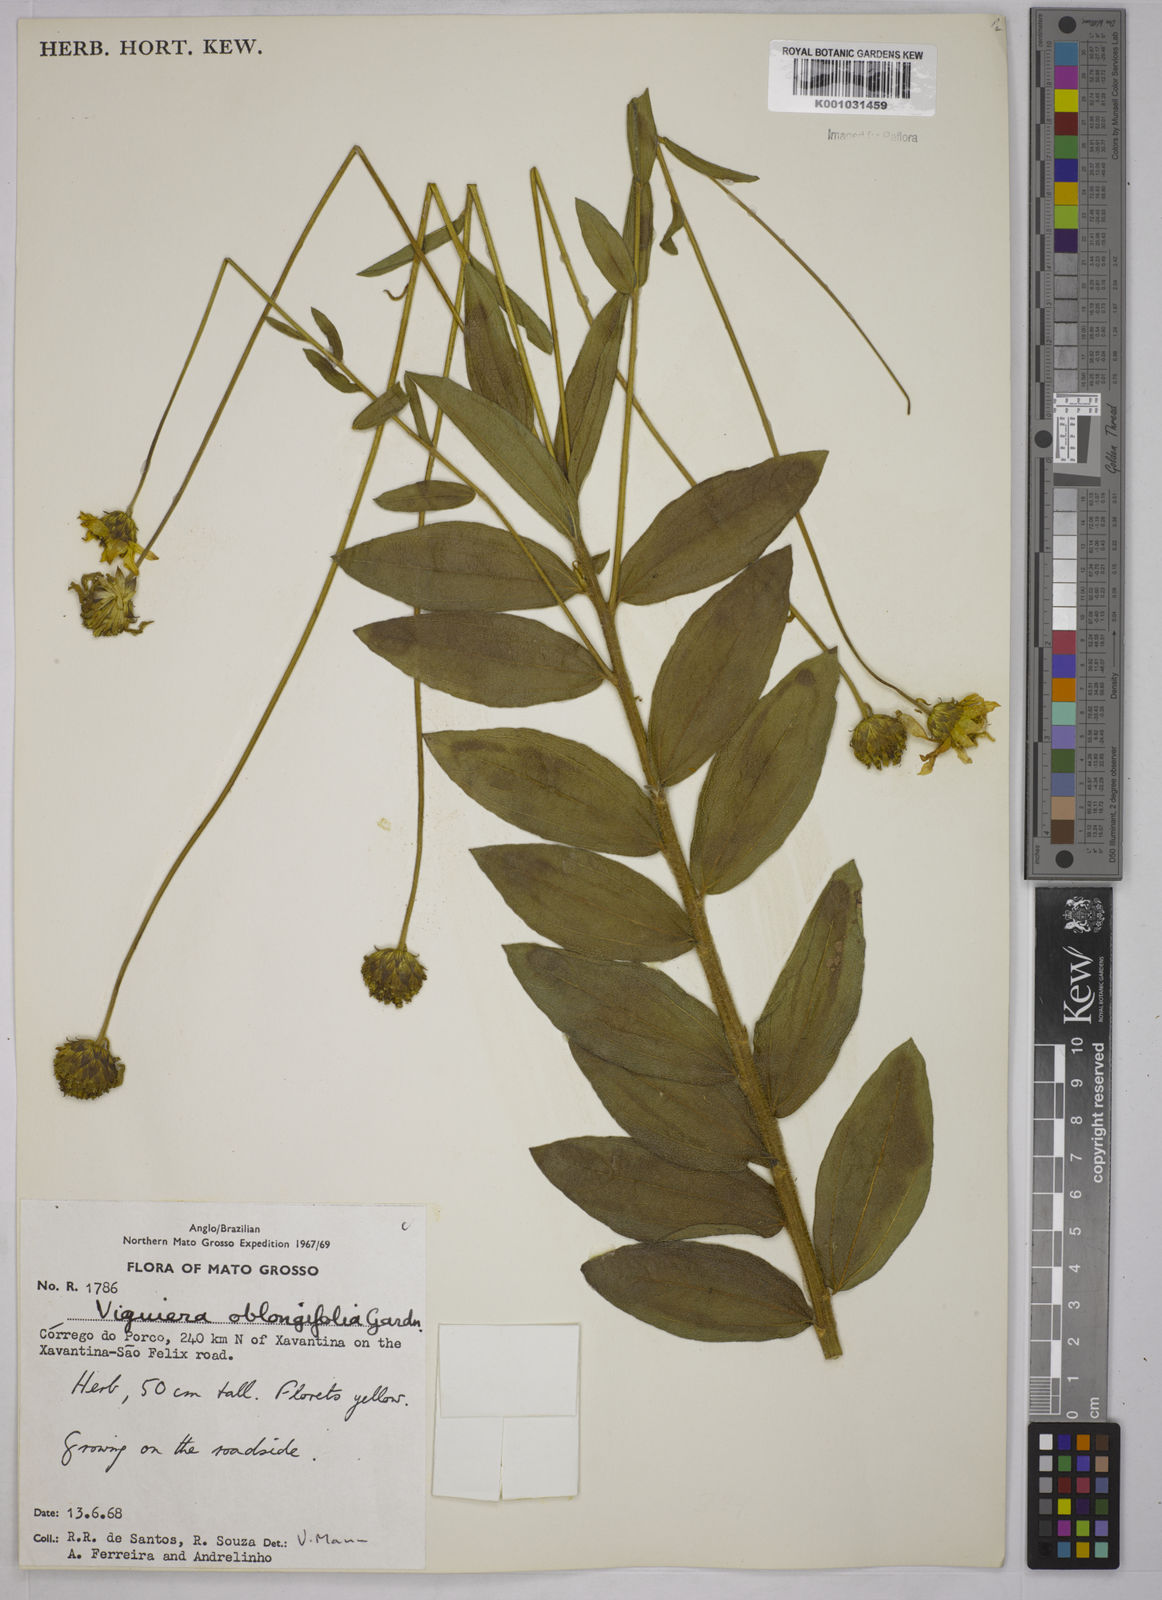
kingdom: Plantae
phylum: Tracheophyta
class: Magnoliopsida
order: Asterales
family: Asteraceae
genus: Aldama
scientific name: Aldama oblongifolia
